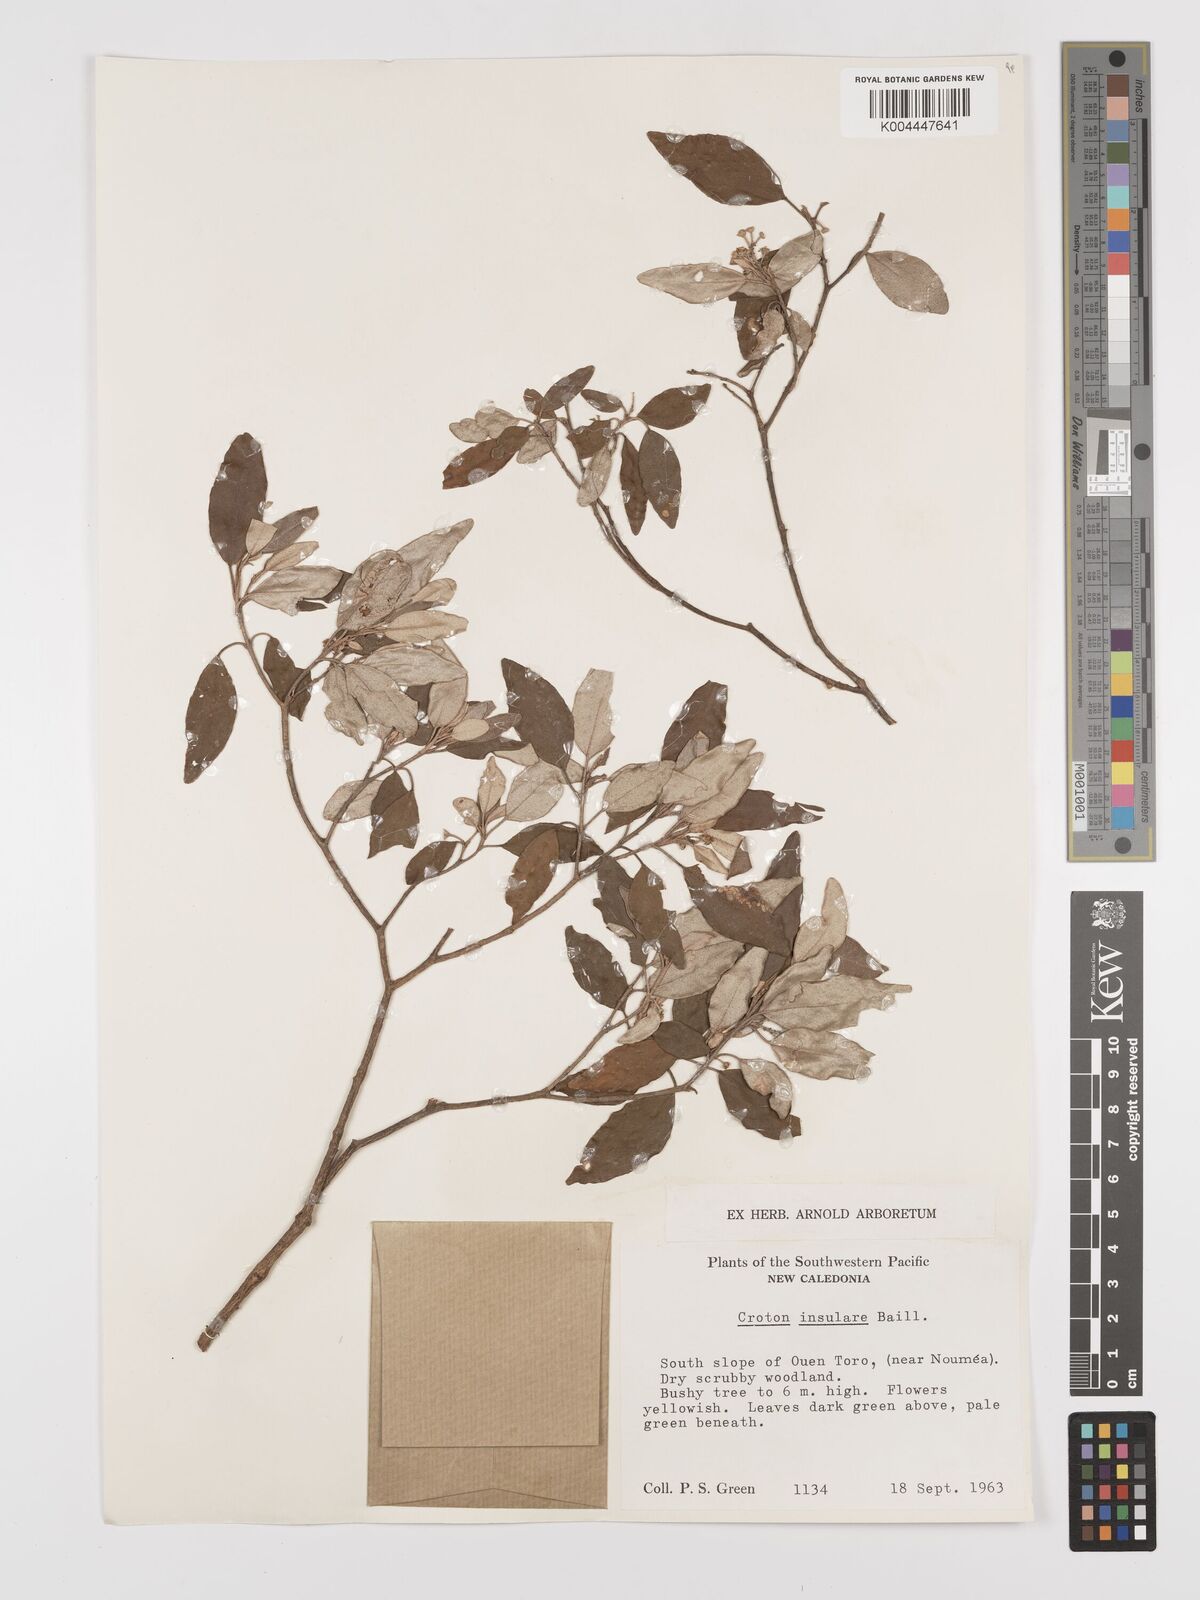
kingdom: Plantae
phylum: Tracheophyta
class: Magnoliopsida
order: Malpighiales
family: Euphorbiaceae
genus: Croton
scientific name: Croton insularis
